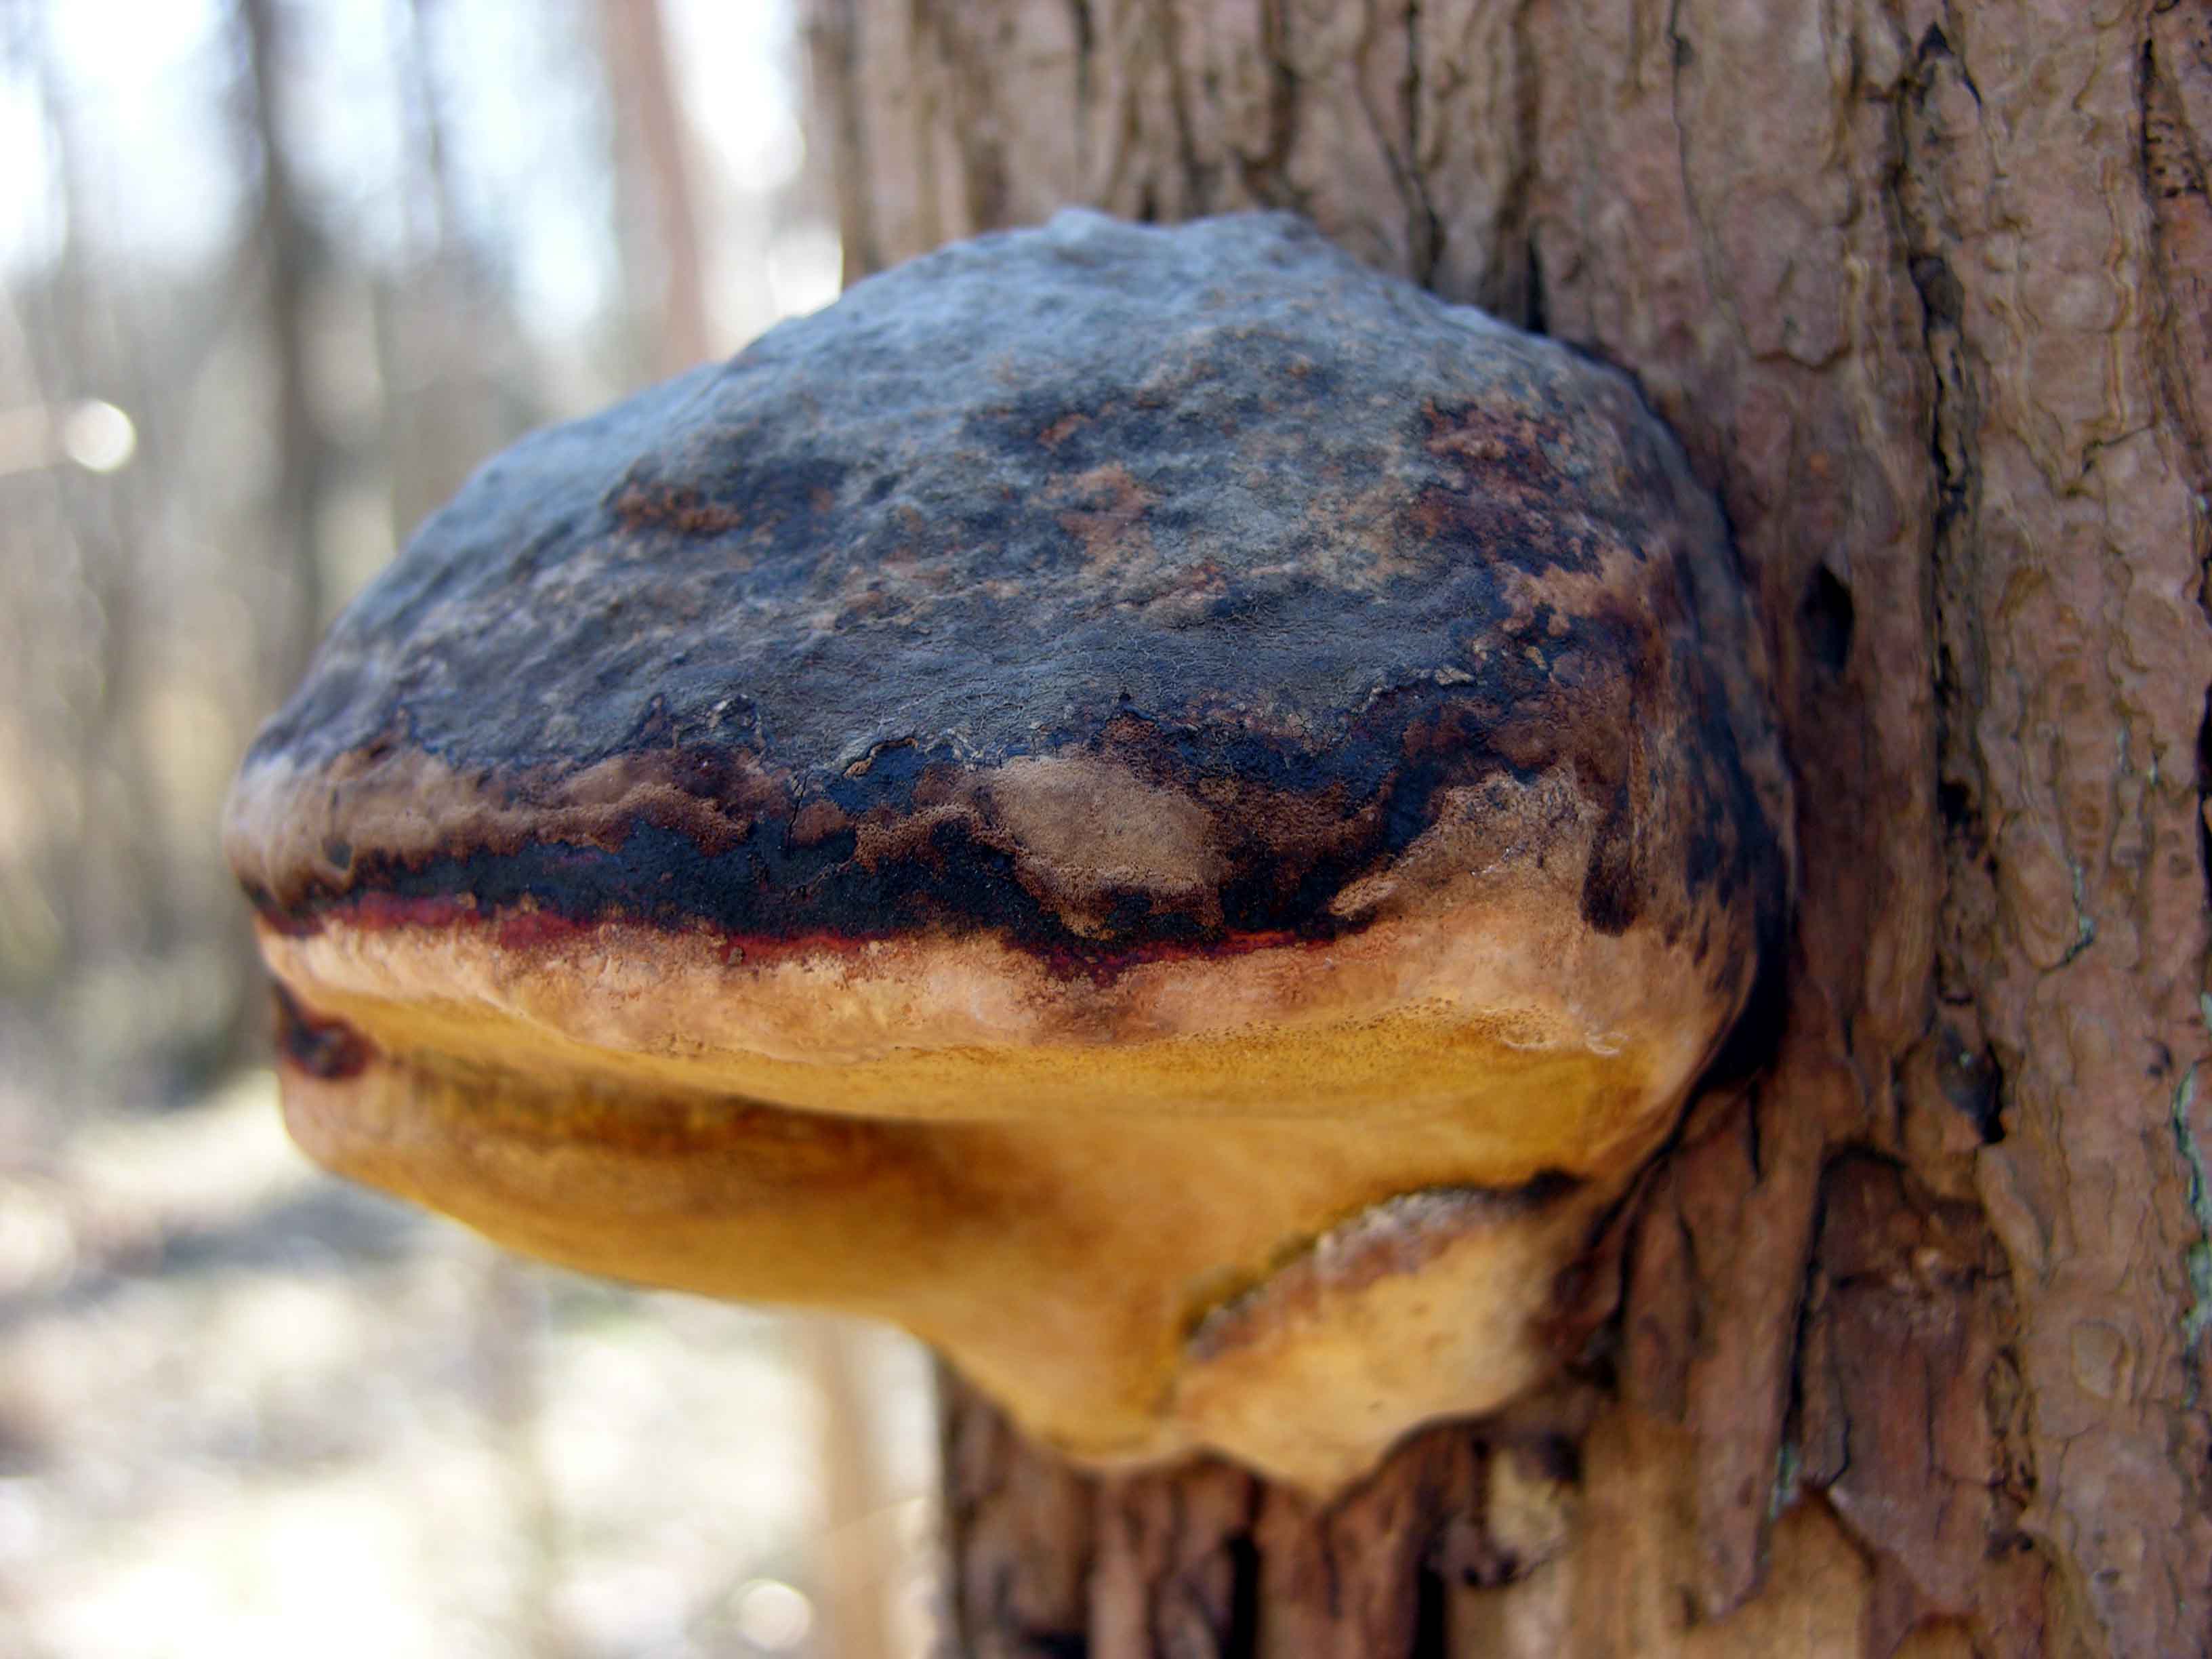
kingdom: Fungi
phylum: Basidiomycota
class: Agaricomycetes
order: Polyporales
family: Fomitopsidaceae
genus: Fomitopsis
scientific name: Fomitopsis pinicola
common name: randbæltet hovporesvamp
